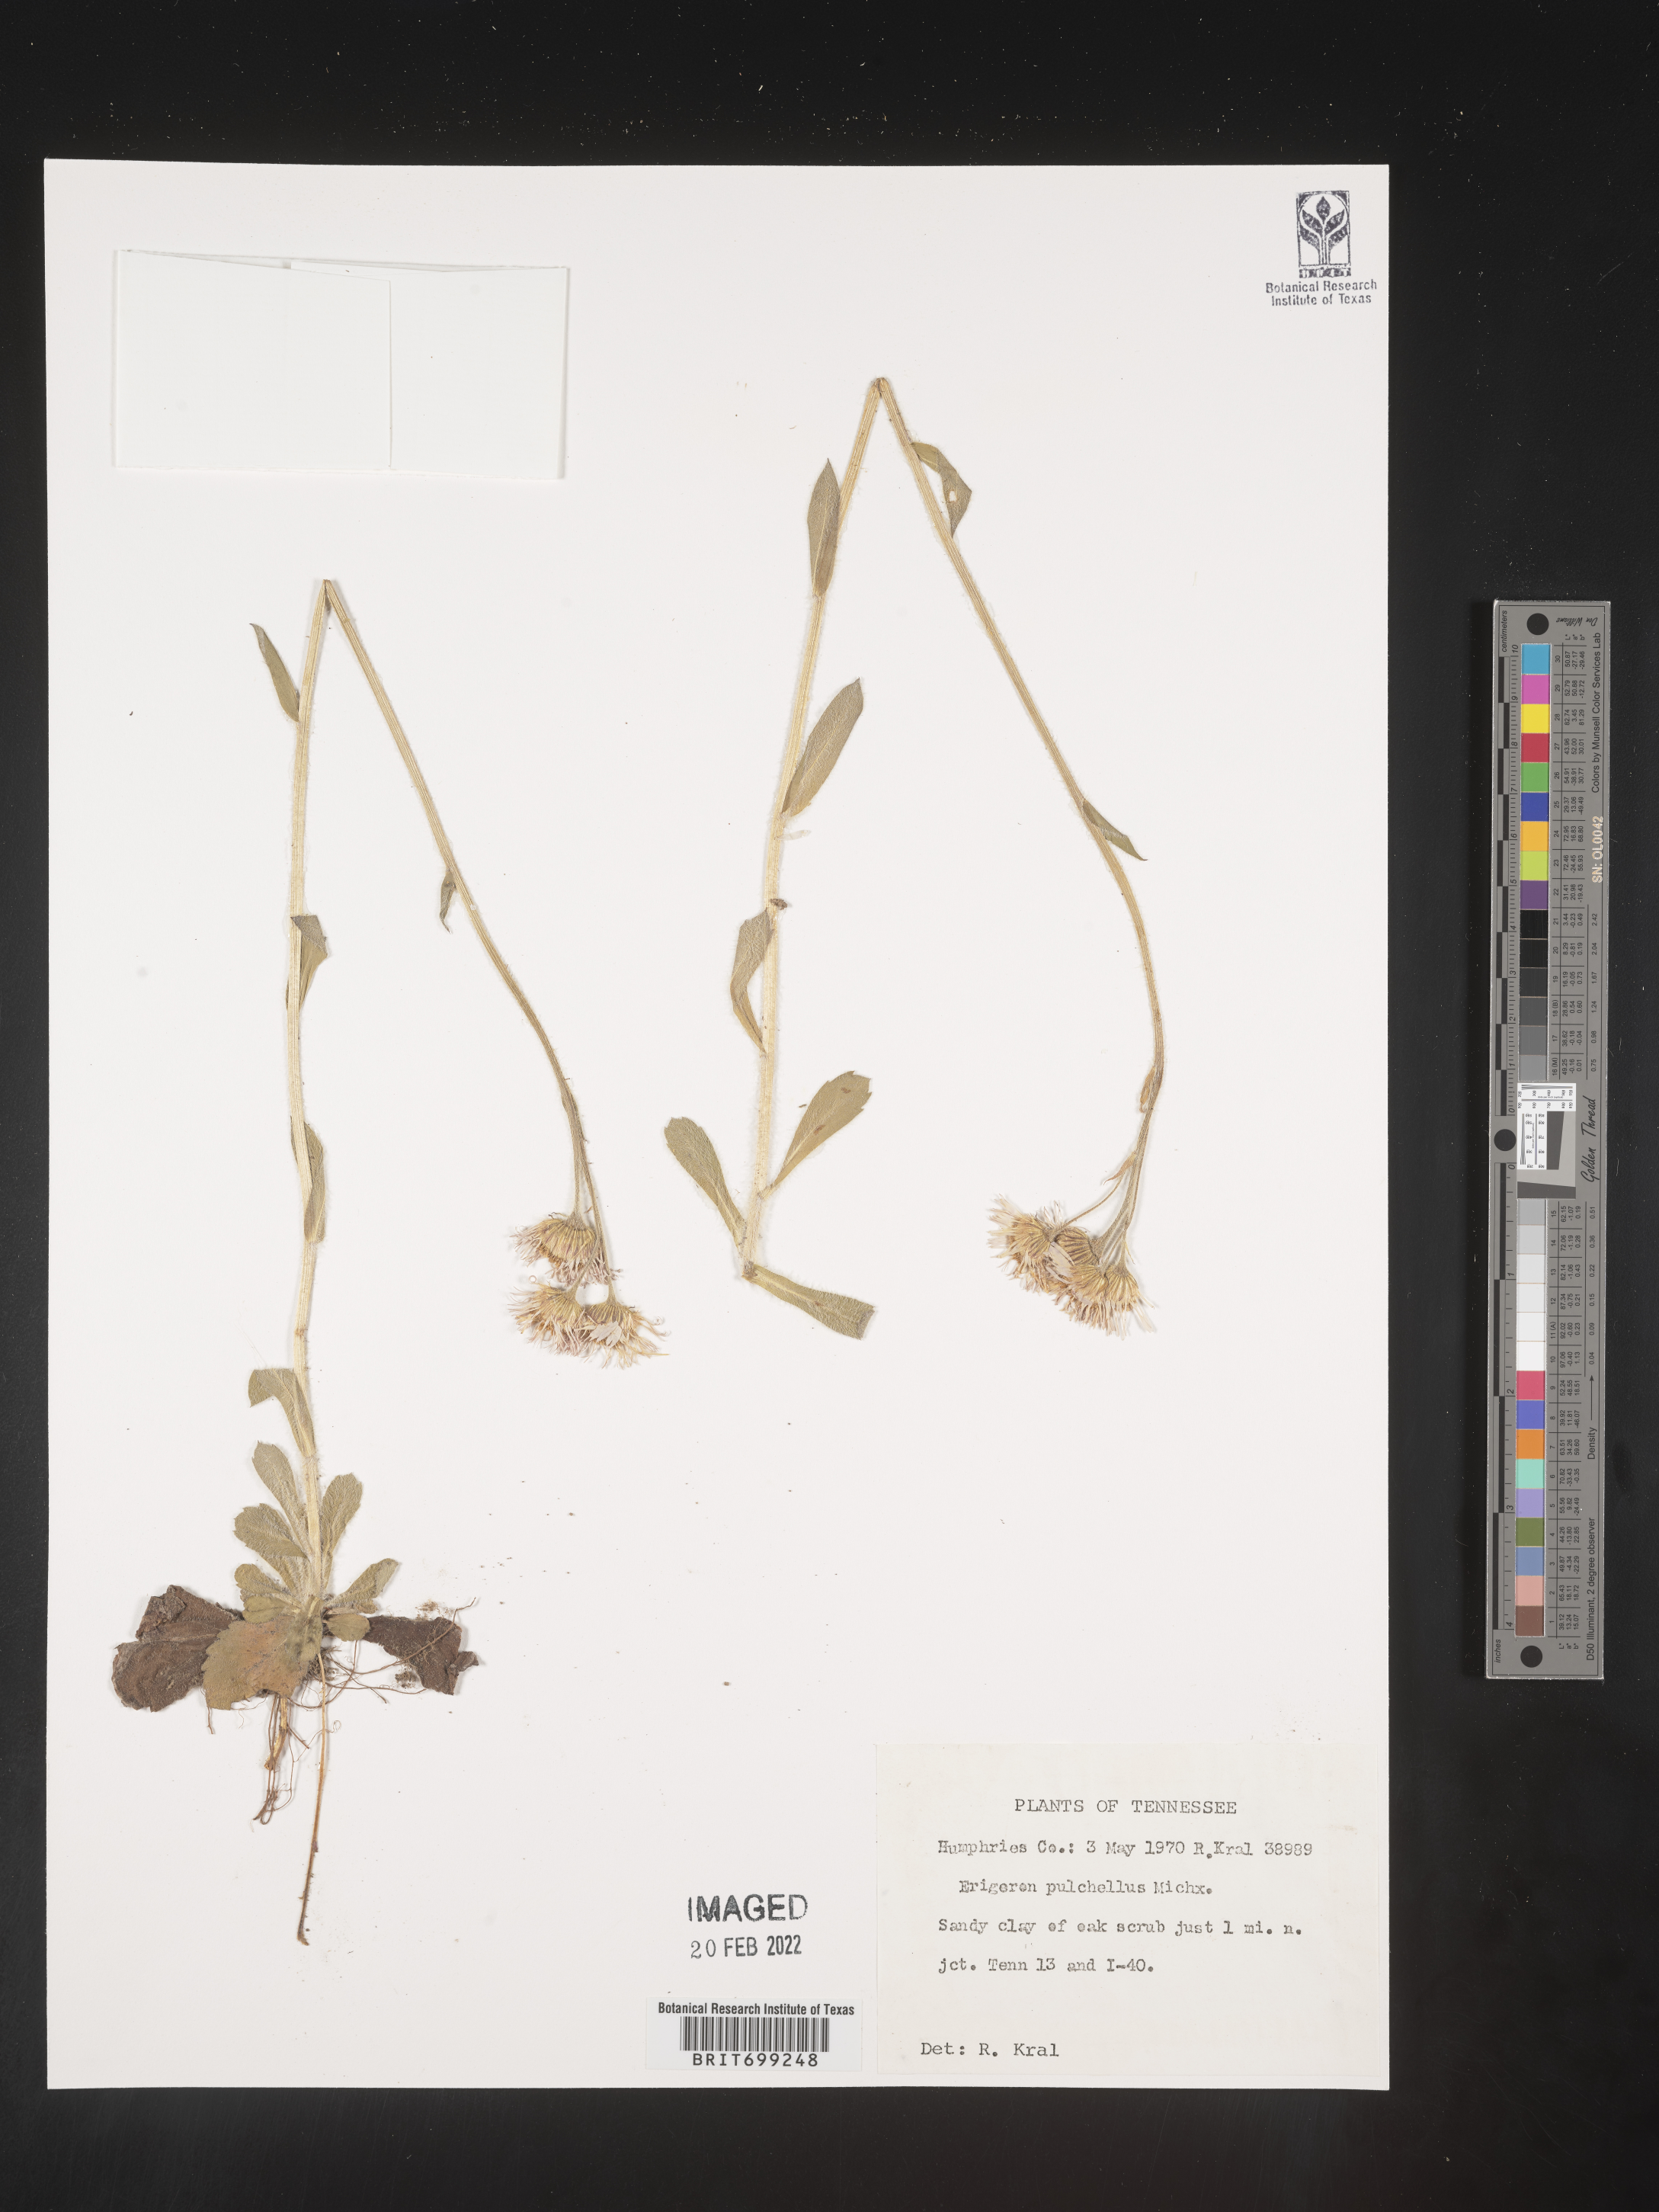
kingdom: Plantae
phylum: Tracheophyta
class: Magnoliopsida
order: Asterales
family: Asteraceae
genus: Erigeron
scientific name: Erigeron pulchellus
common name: Hairy fleabane
